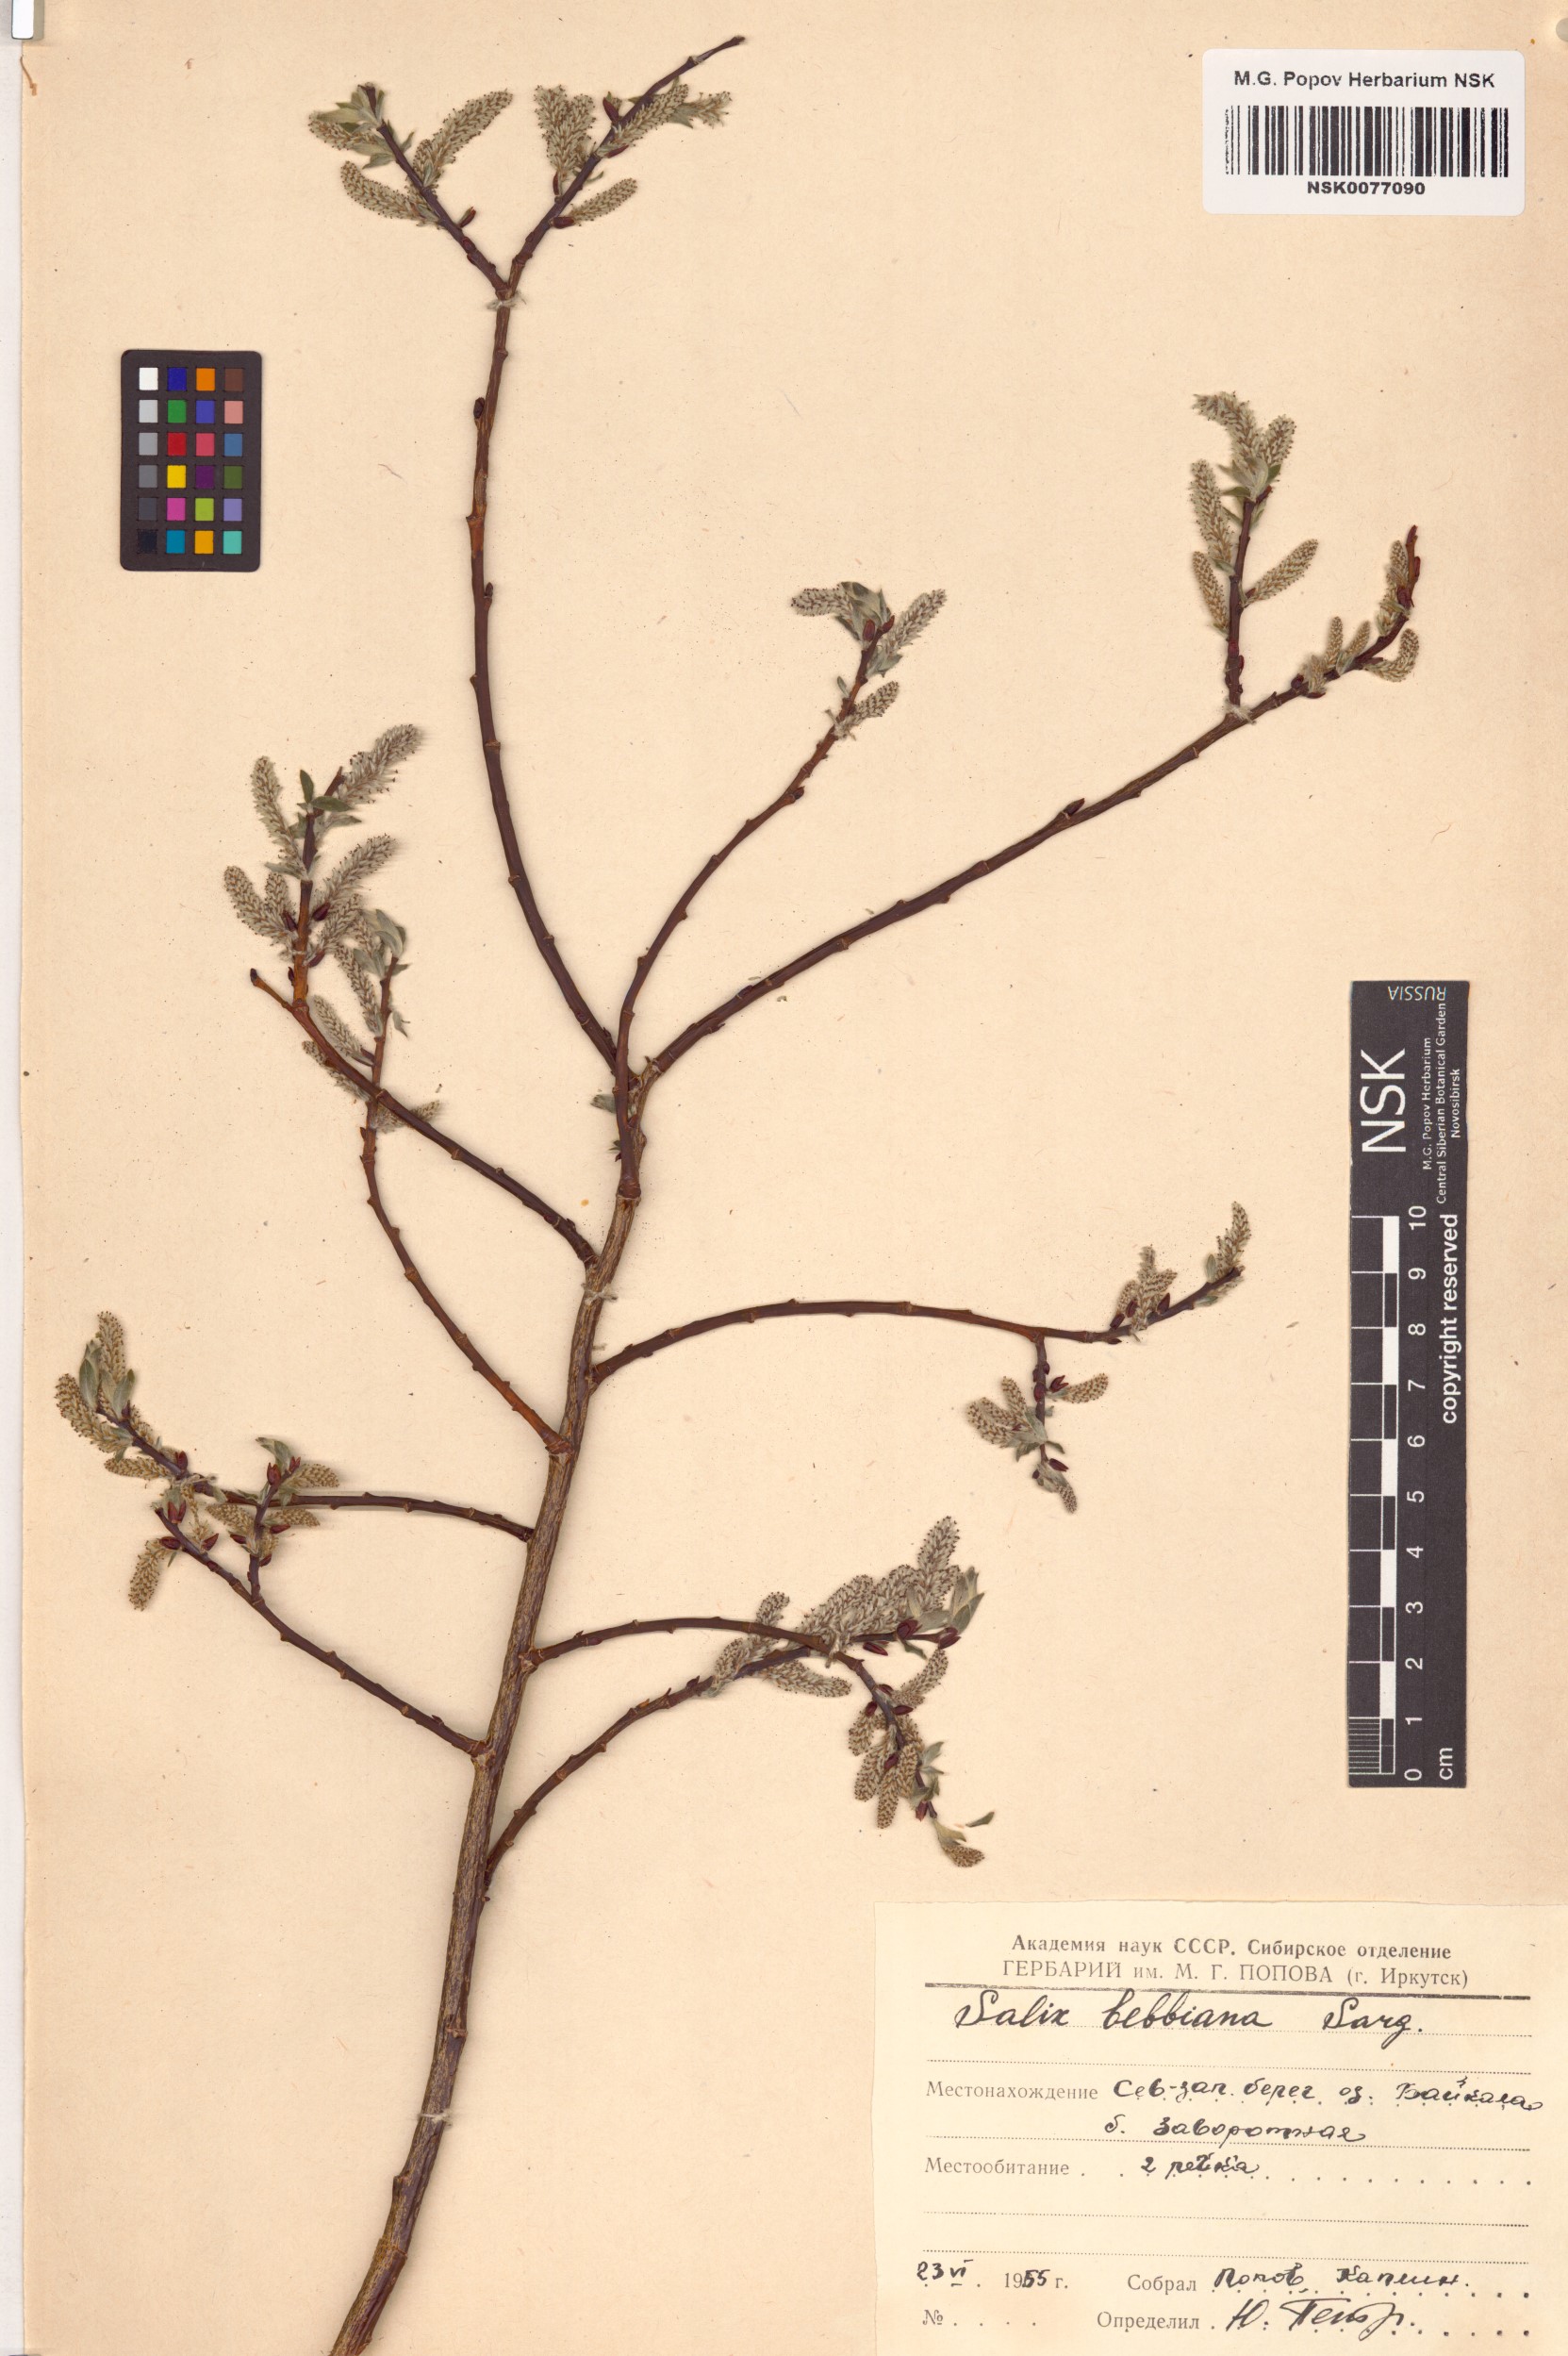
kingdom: Plantae
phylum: Tracheophyta
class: Magnoliopsida
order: Malpighiales
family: Salicaceae
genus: Salix
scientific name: Salix bebbiana
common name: Bebb's willow
